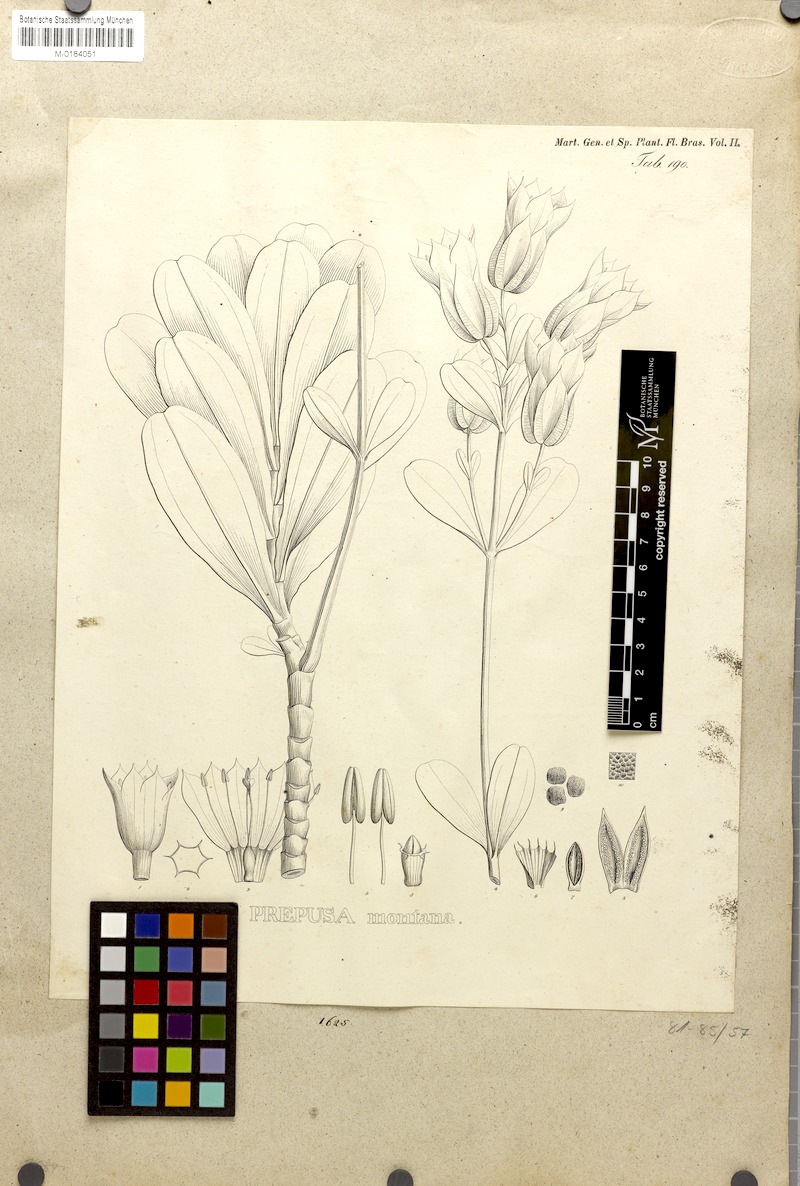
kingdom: Plantae
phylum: Tracheophyta
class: Magnoliopsida
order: Gentianales
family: Gentianaceae
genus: Prepusa
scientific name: Prepusa montana
